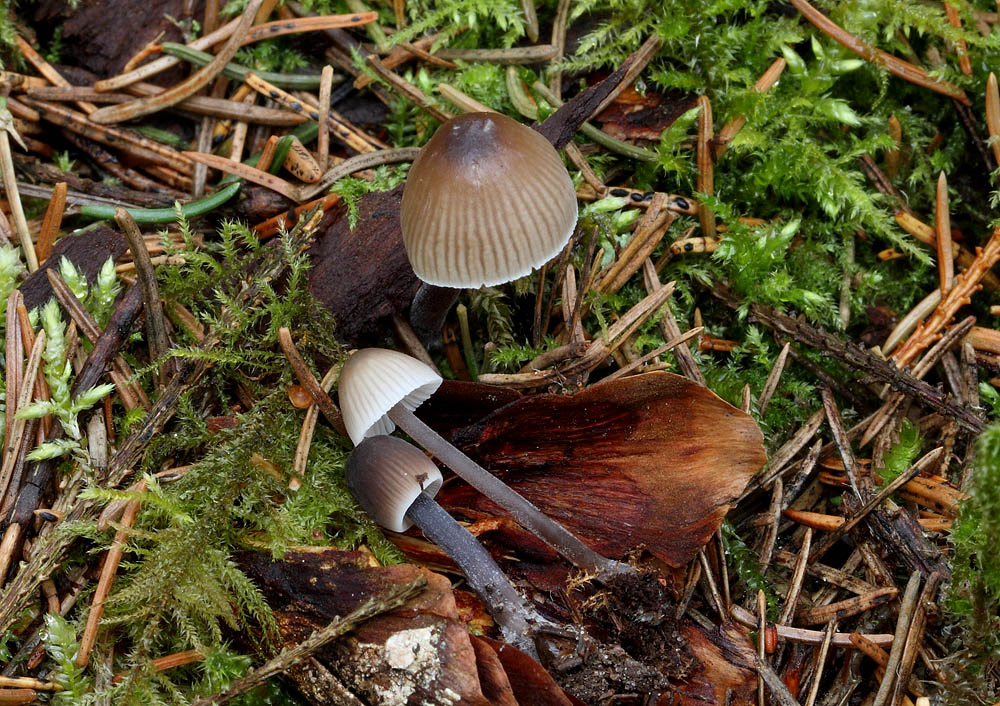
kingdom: Fungi
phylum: Basidiomycota
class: Agaricomycetes
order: Agaricales
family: Mycenaceae
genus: Mycena
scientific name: Mycena abramsii
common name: sommer-huesvamp
